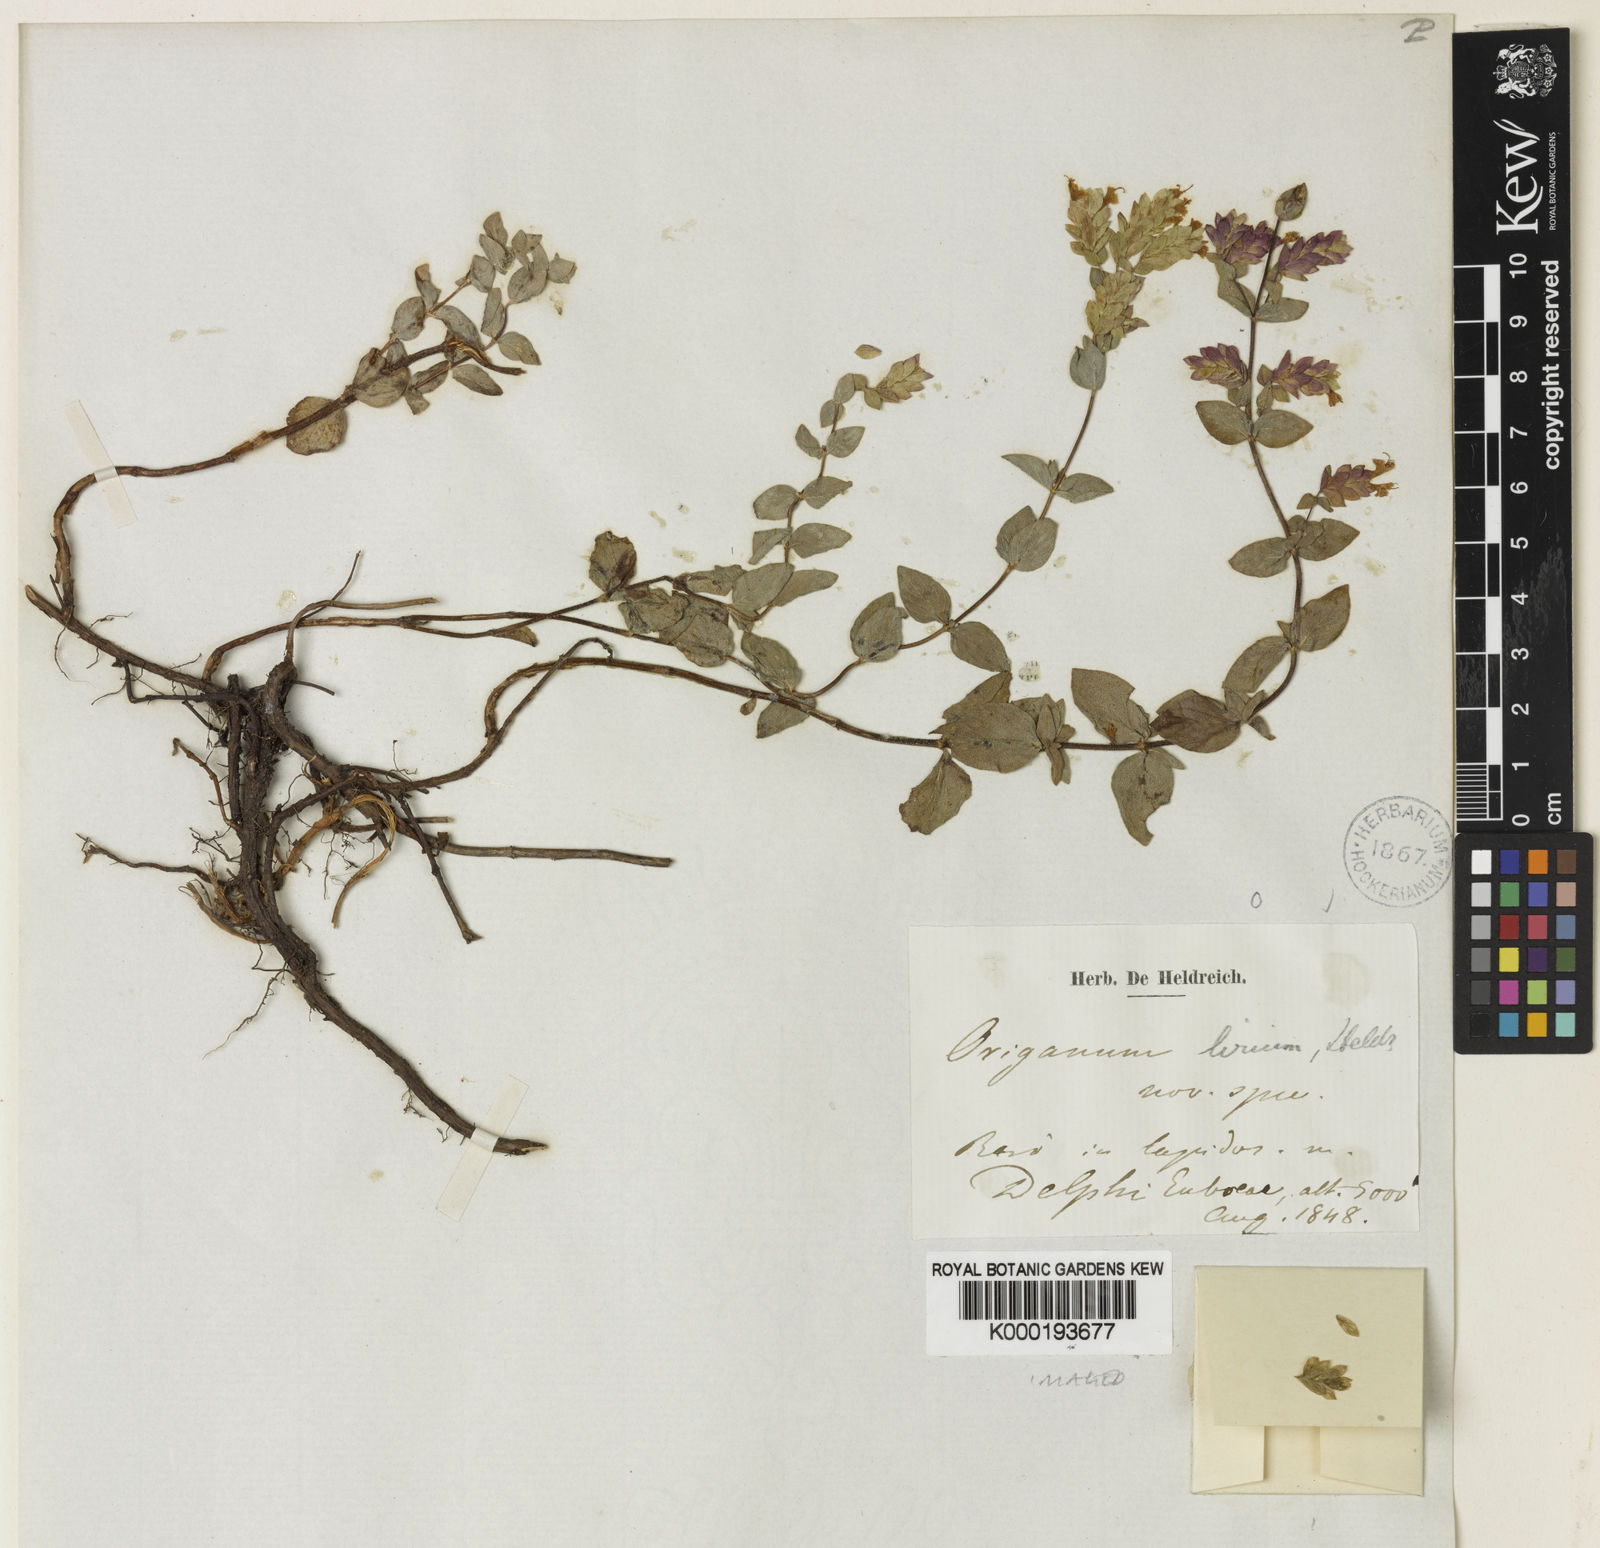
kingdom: Plantae
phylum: Tracheophyta
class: Magnoliopsida
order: Lamiales
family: Lamiaceae
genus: Origanum
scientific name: Origanum
